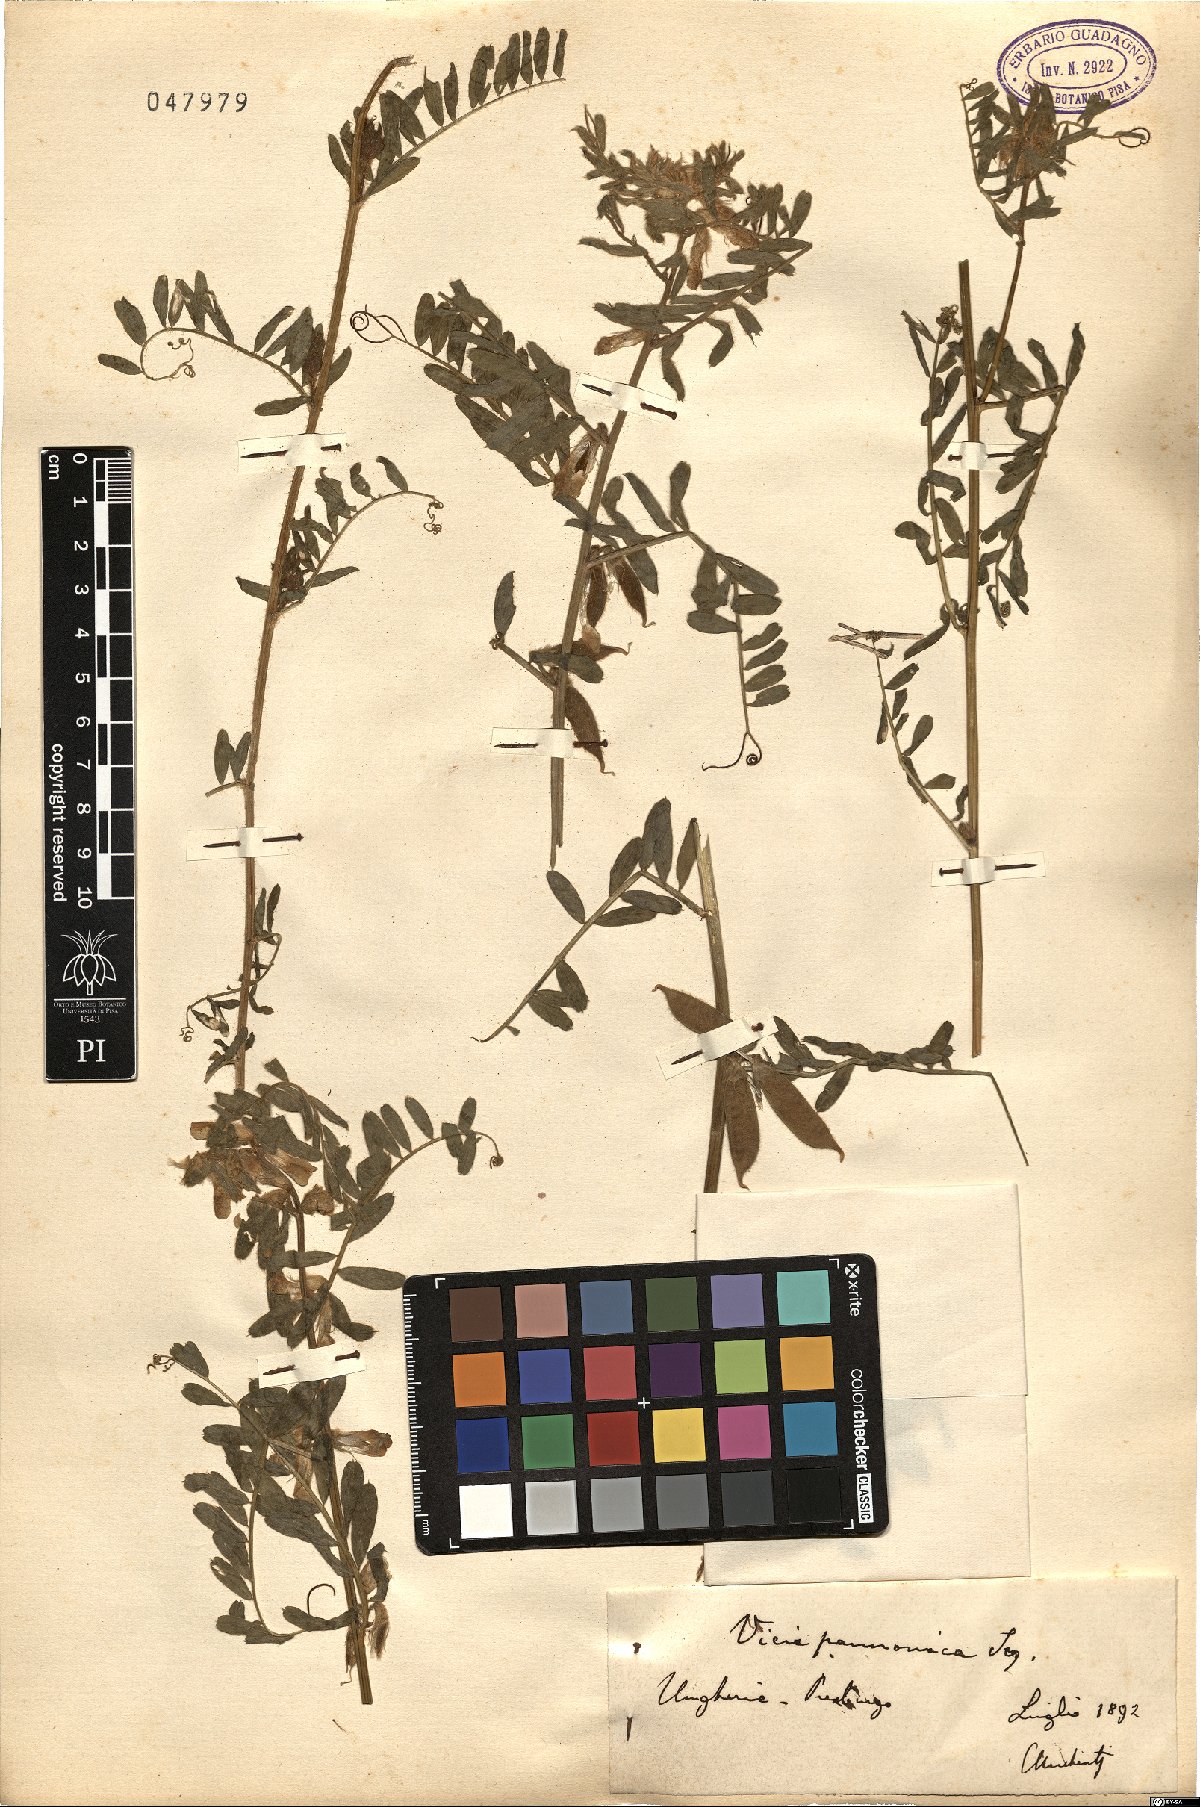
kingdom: Plantae
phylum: Tracheophyta
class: Magnoliopsida
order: Fabales
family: Fabaceae
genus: Vicia
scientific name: Vicia pannonica
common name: Hungarian vetch
